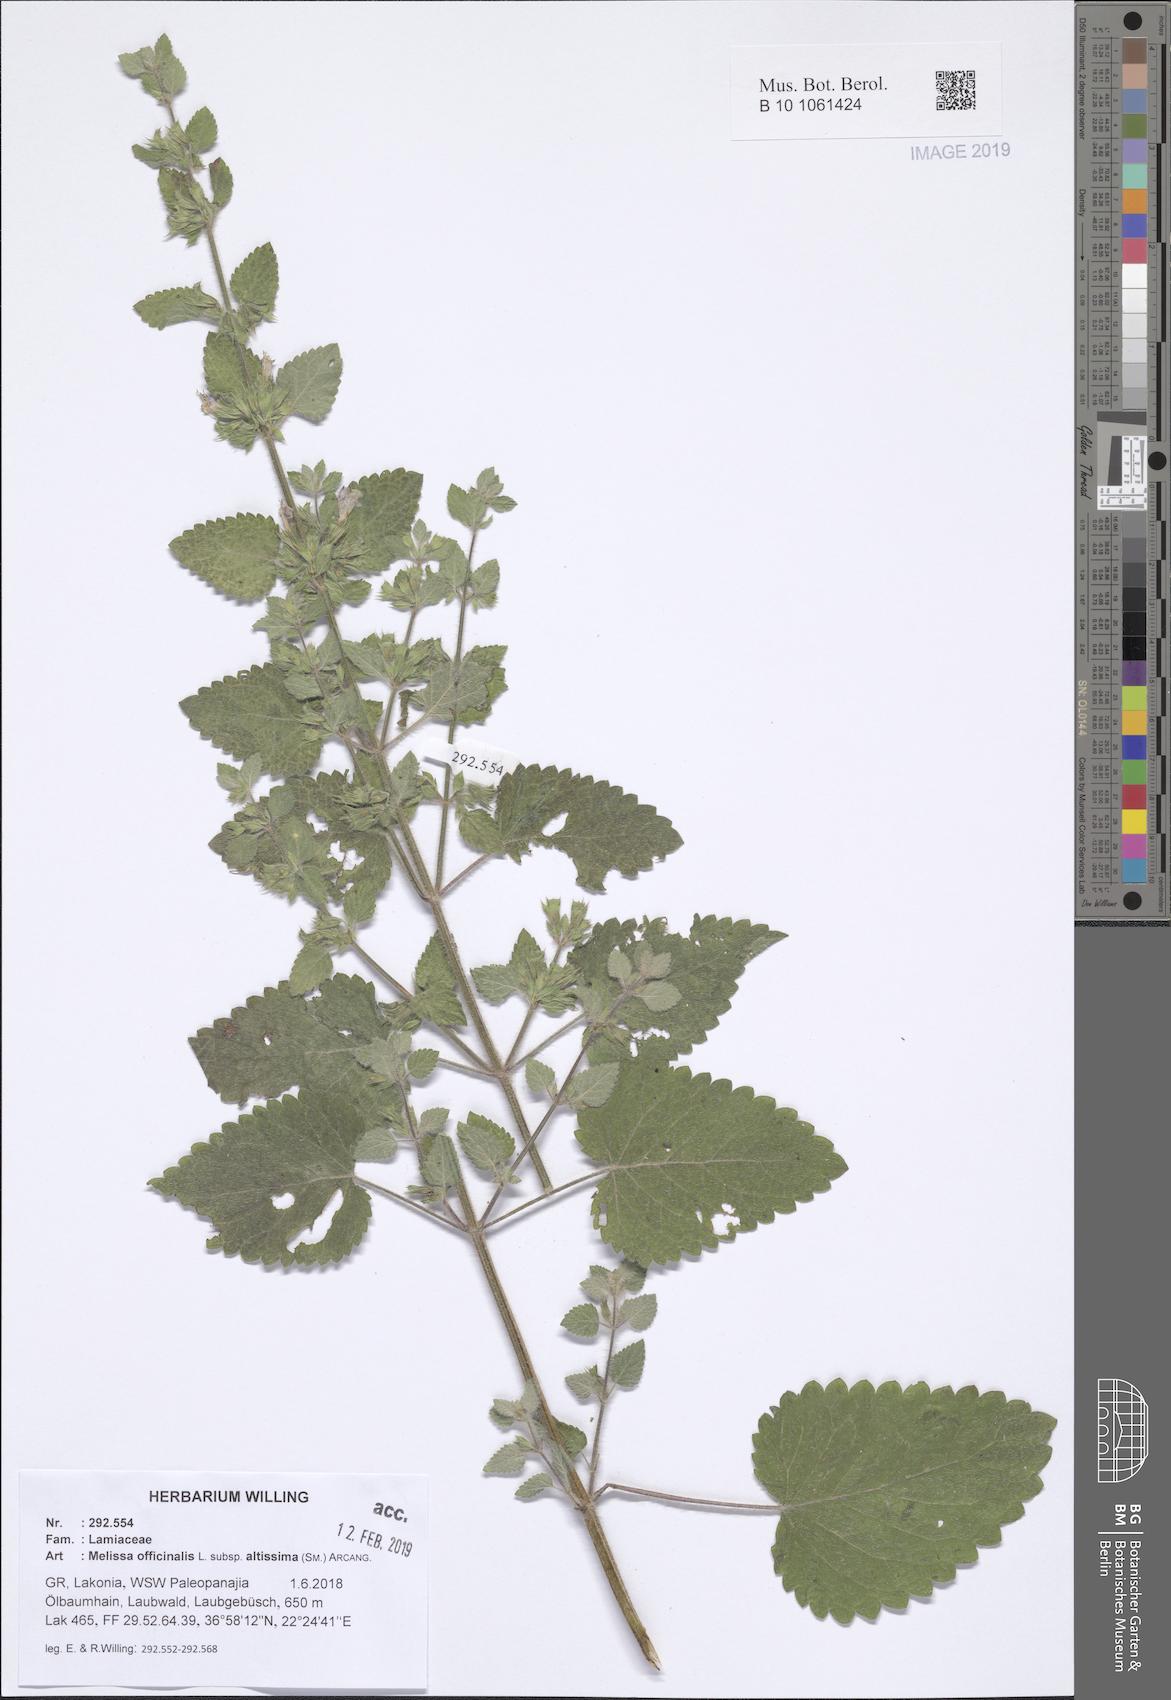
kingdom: Plantae
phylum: Tracheophyta
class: Magnoliopsida
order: Lamiales
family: Lamiaceae
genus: Melissa
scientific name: Melissa officinalis
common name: Balm
